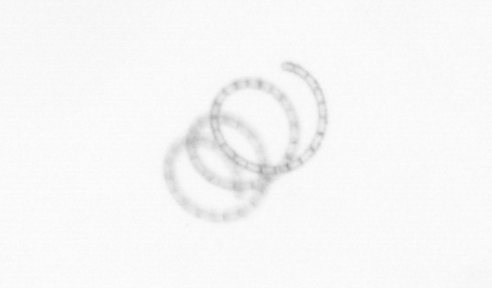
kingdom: Chromista
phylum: Ochrophyta
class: Bacillariophyceae
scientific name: Bacillariophyceae
